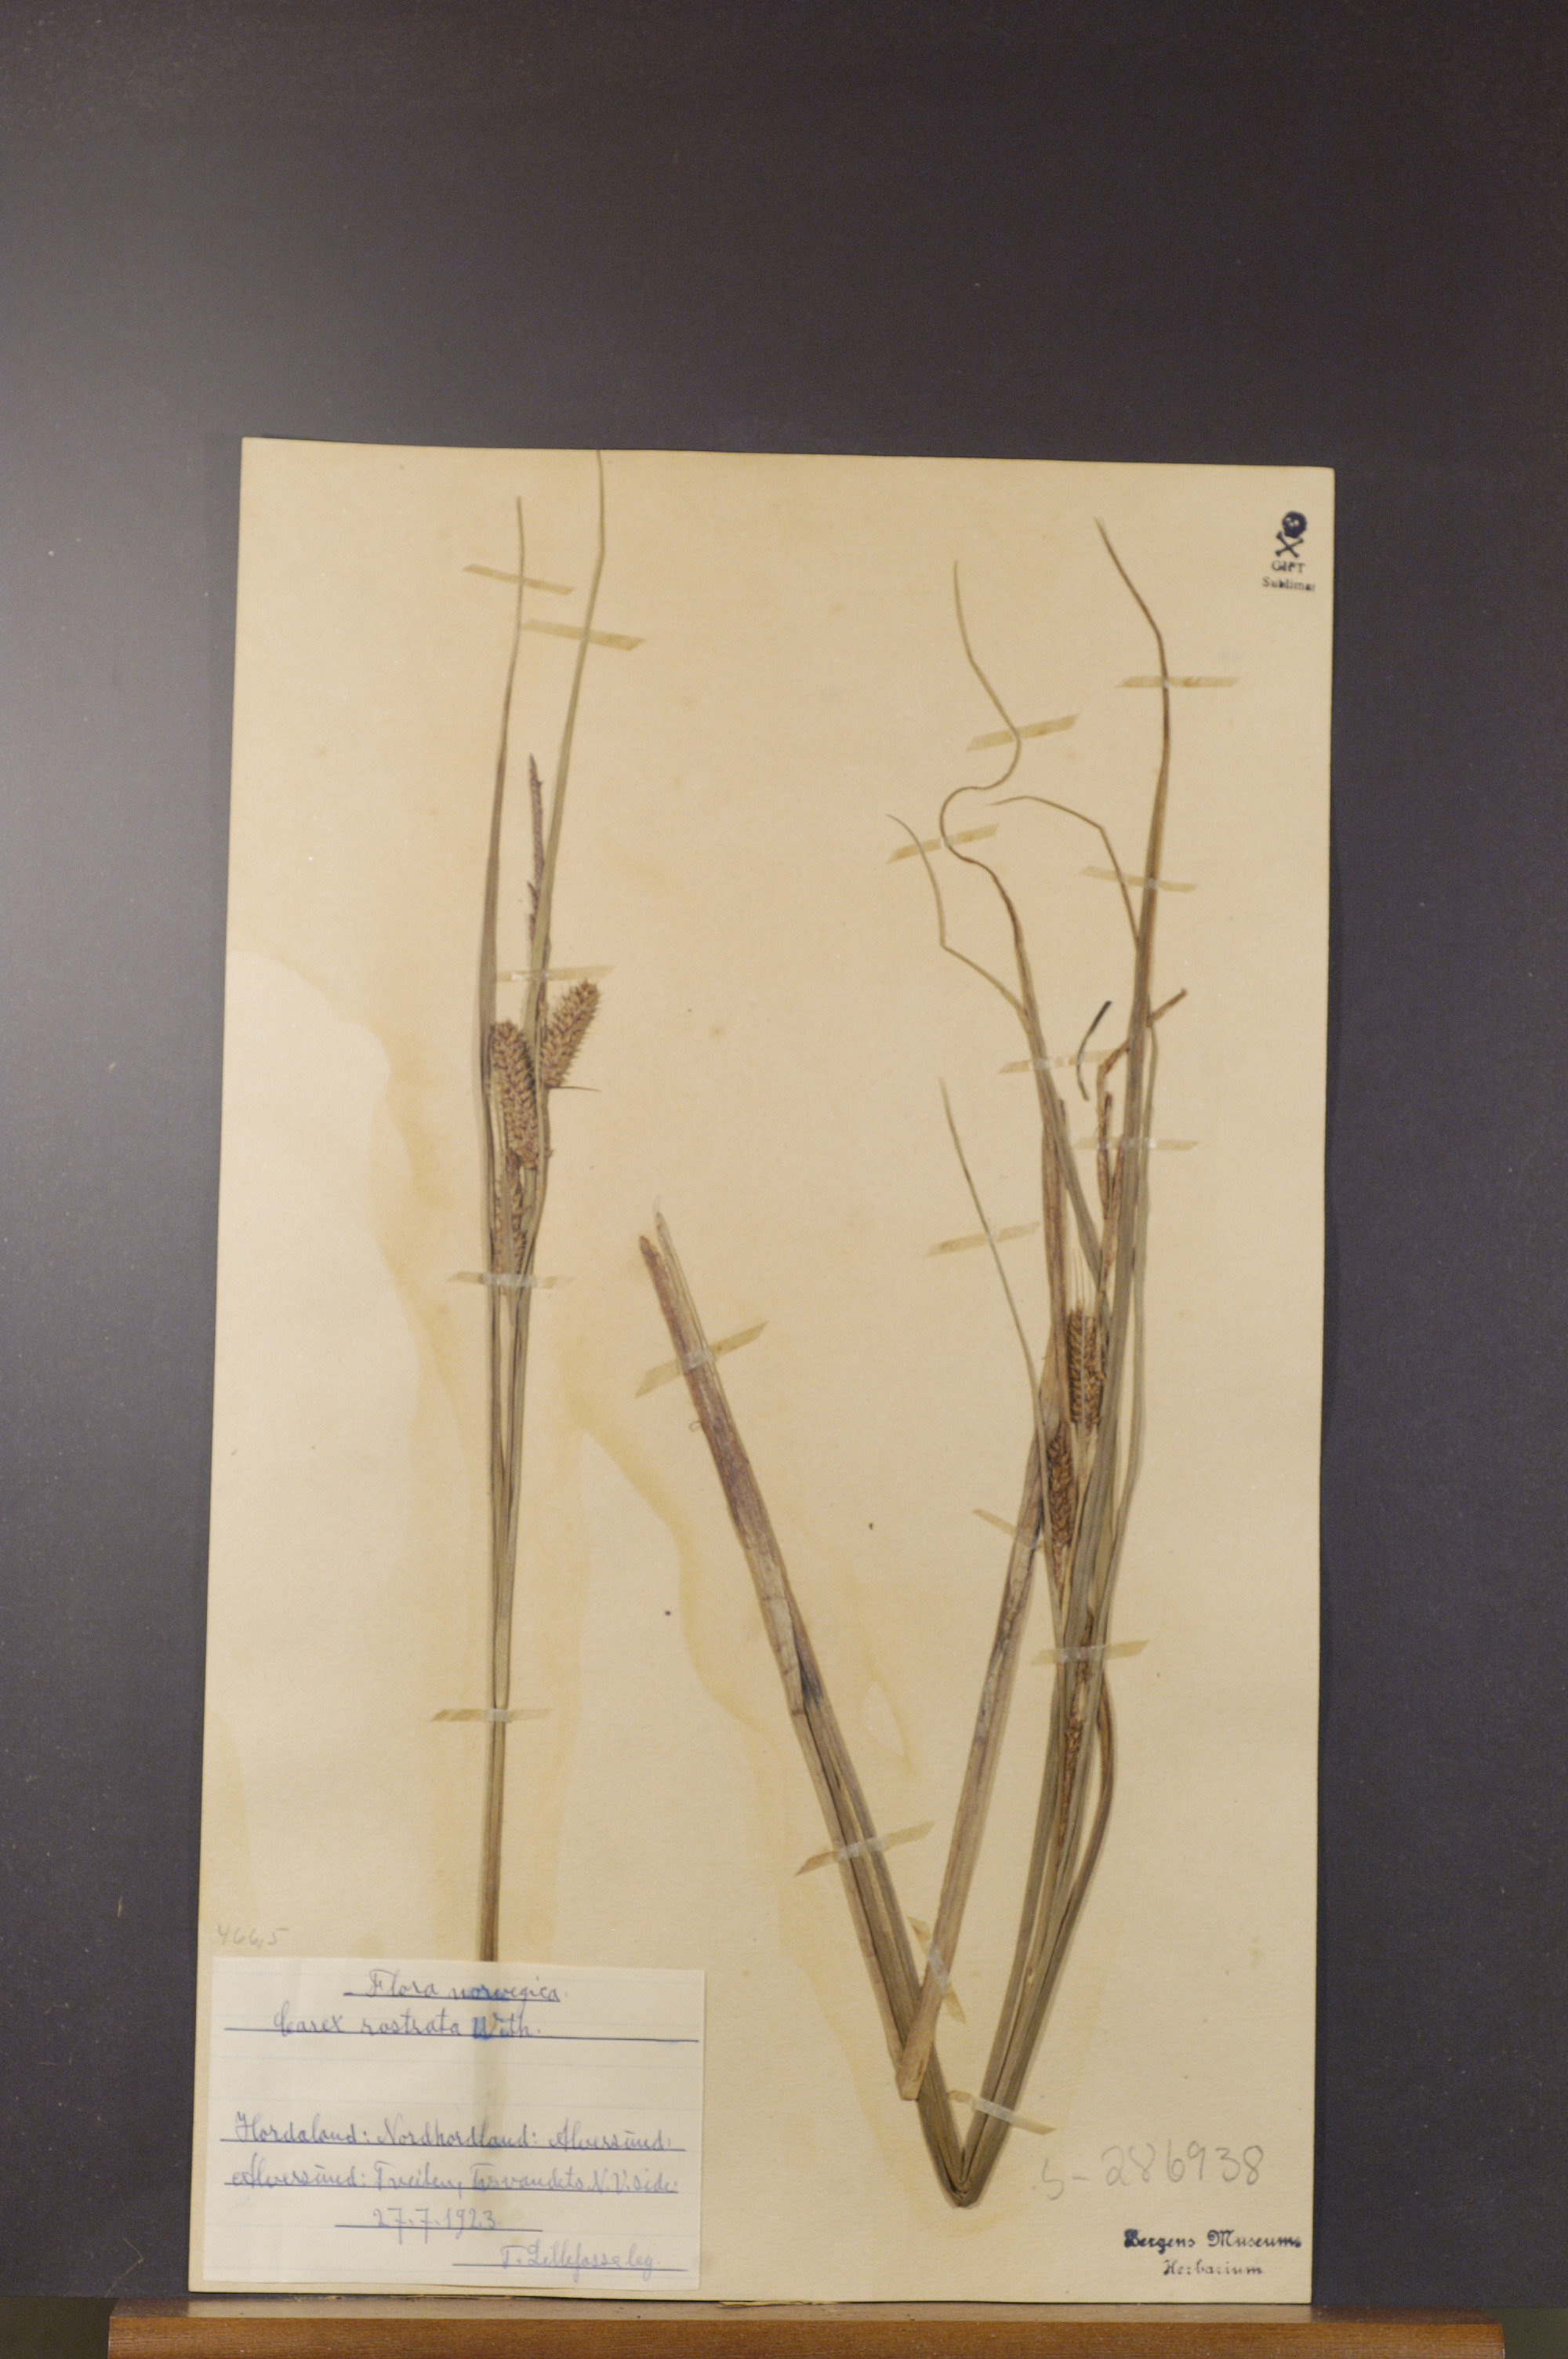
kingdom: Plantae
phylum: Tracheophyta
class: Liliopsida
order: Poales
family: Cyperaceae
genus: Carex
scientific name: Carex rostrata
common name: Bottle sedge
